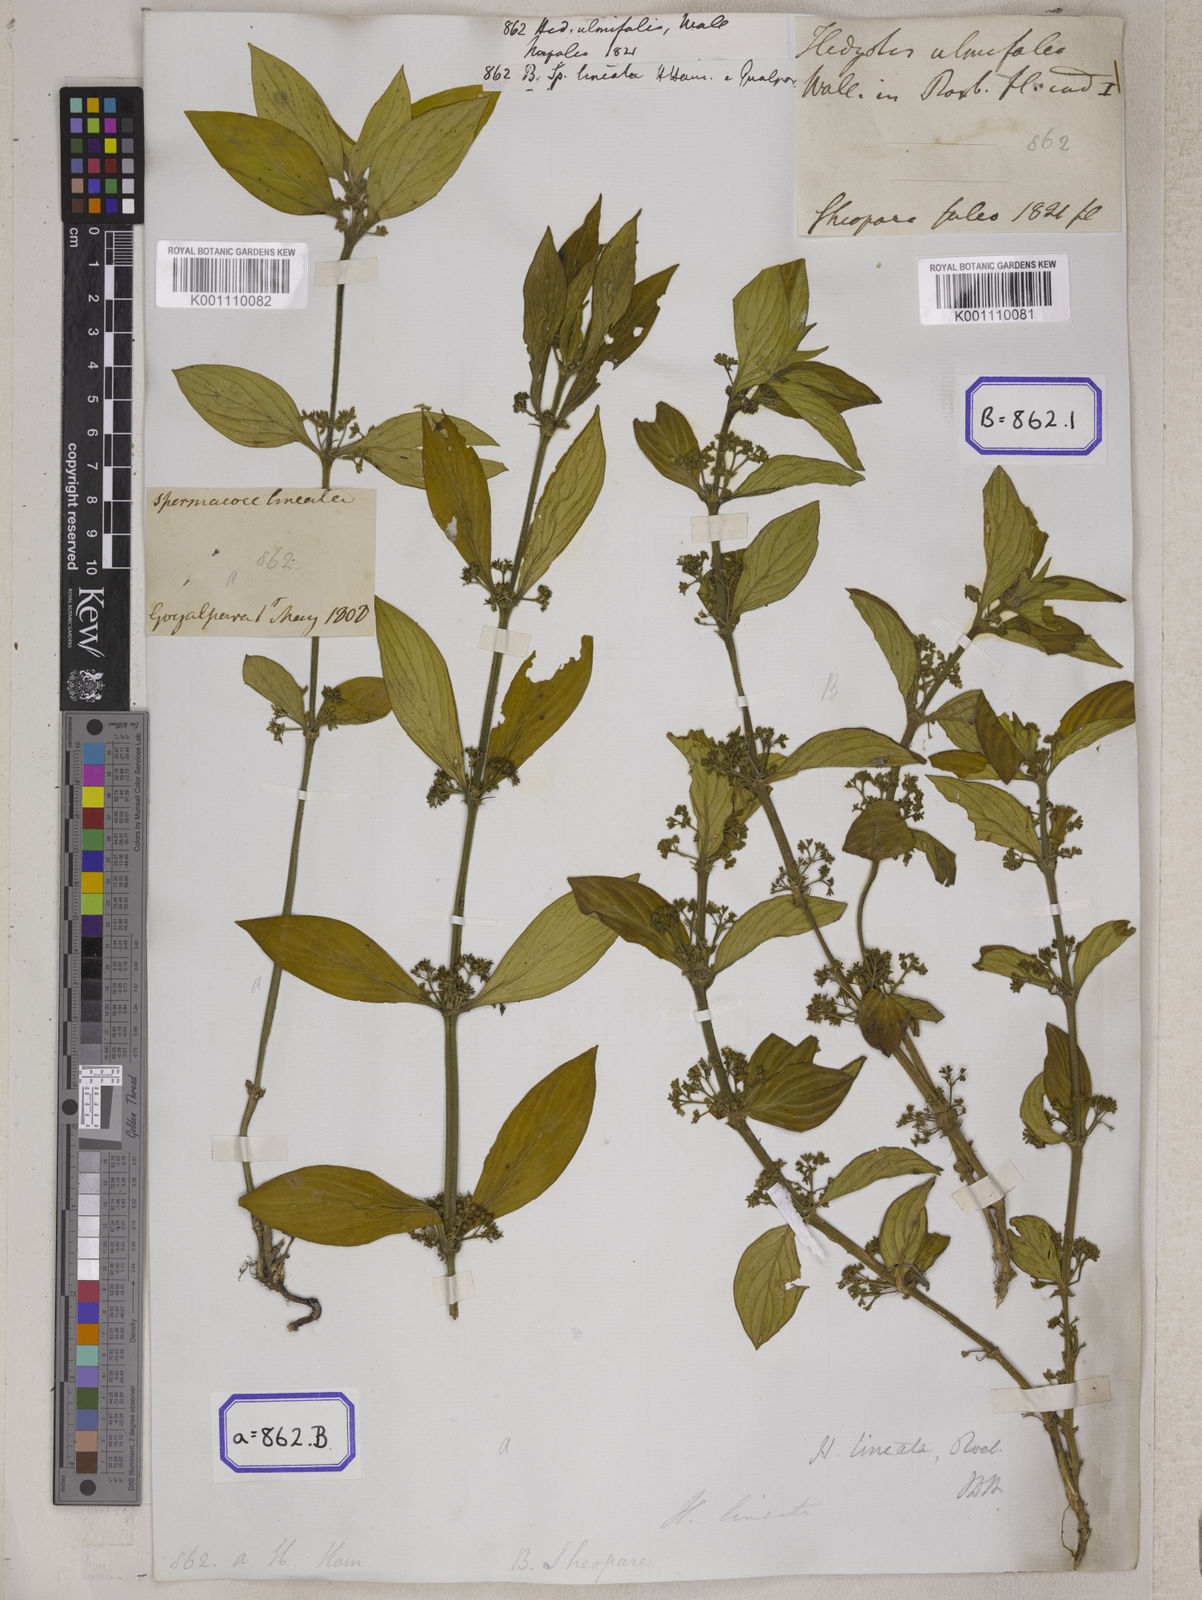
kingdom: Plantae
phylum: Tracheophyta
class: Magnoliopsida
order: Gentianales
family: Rubiaceae
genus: Exallage
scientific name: Exallage ulmifolia
